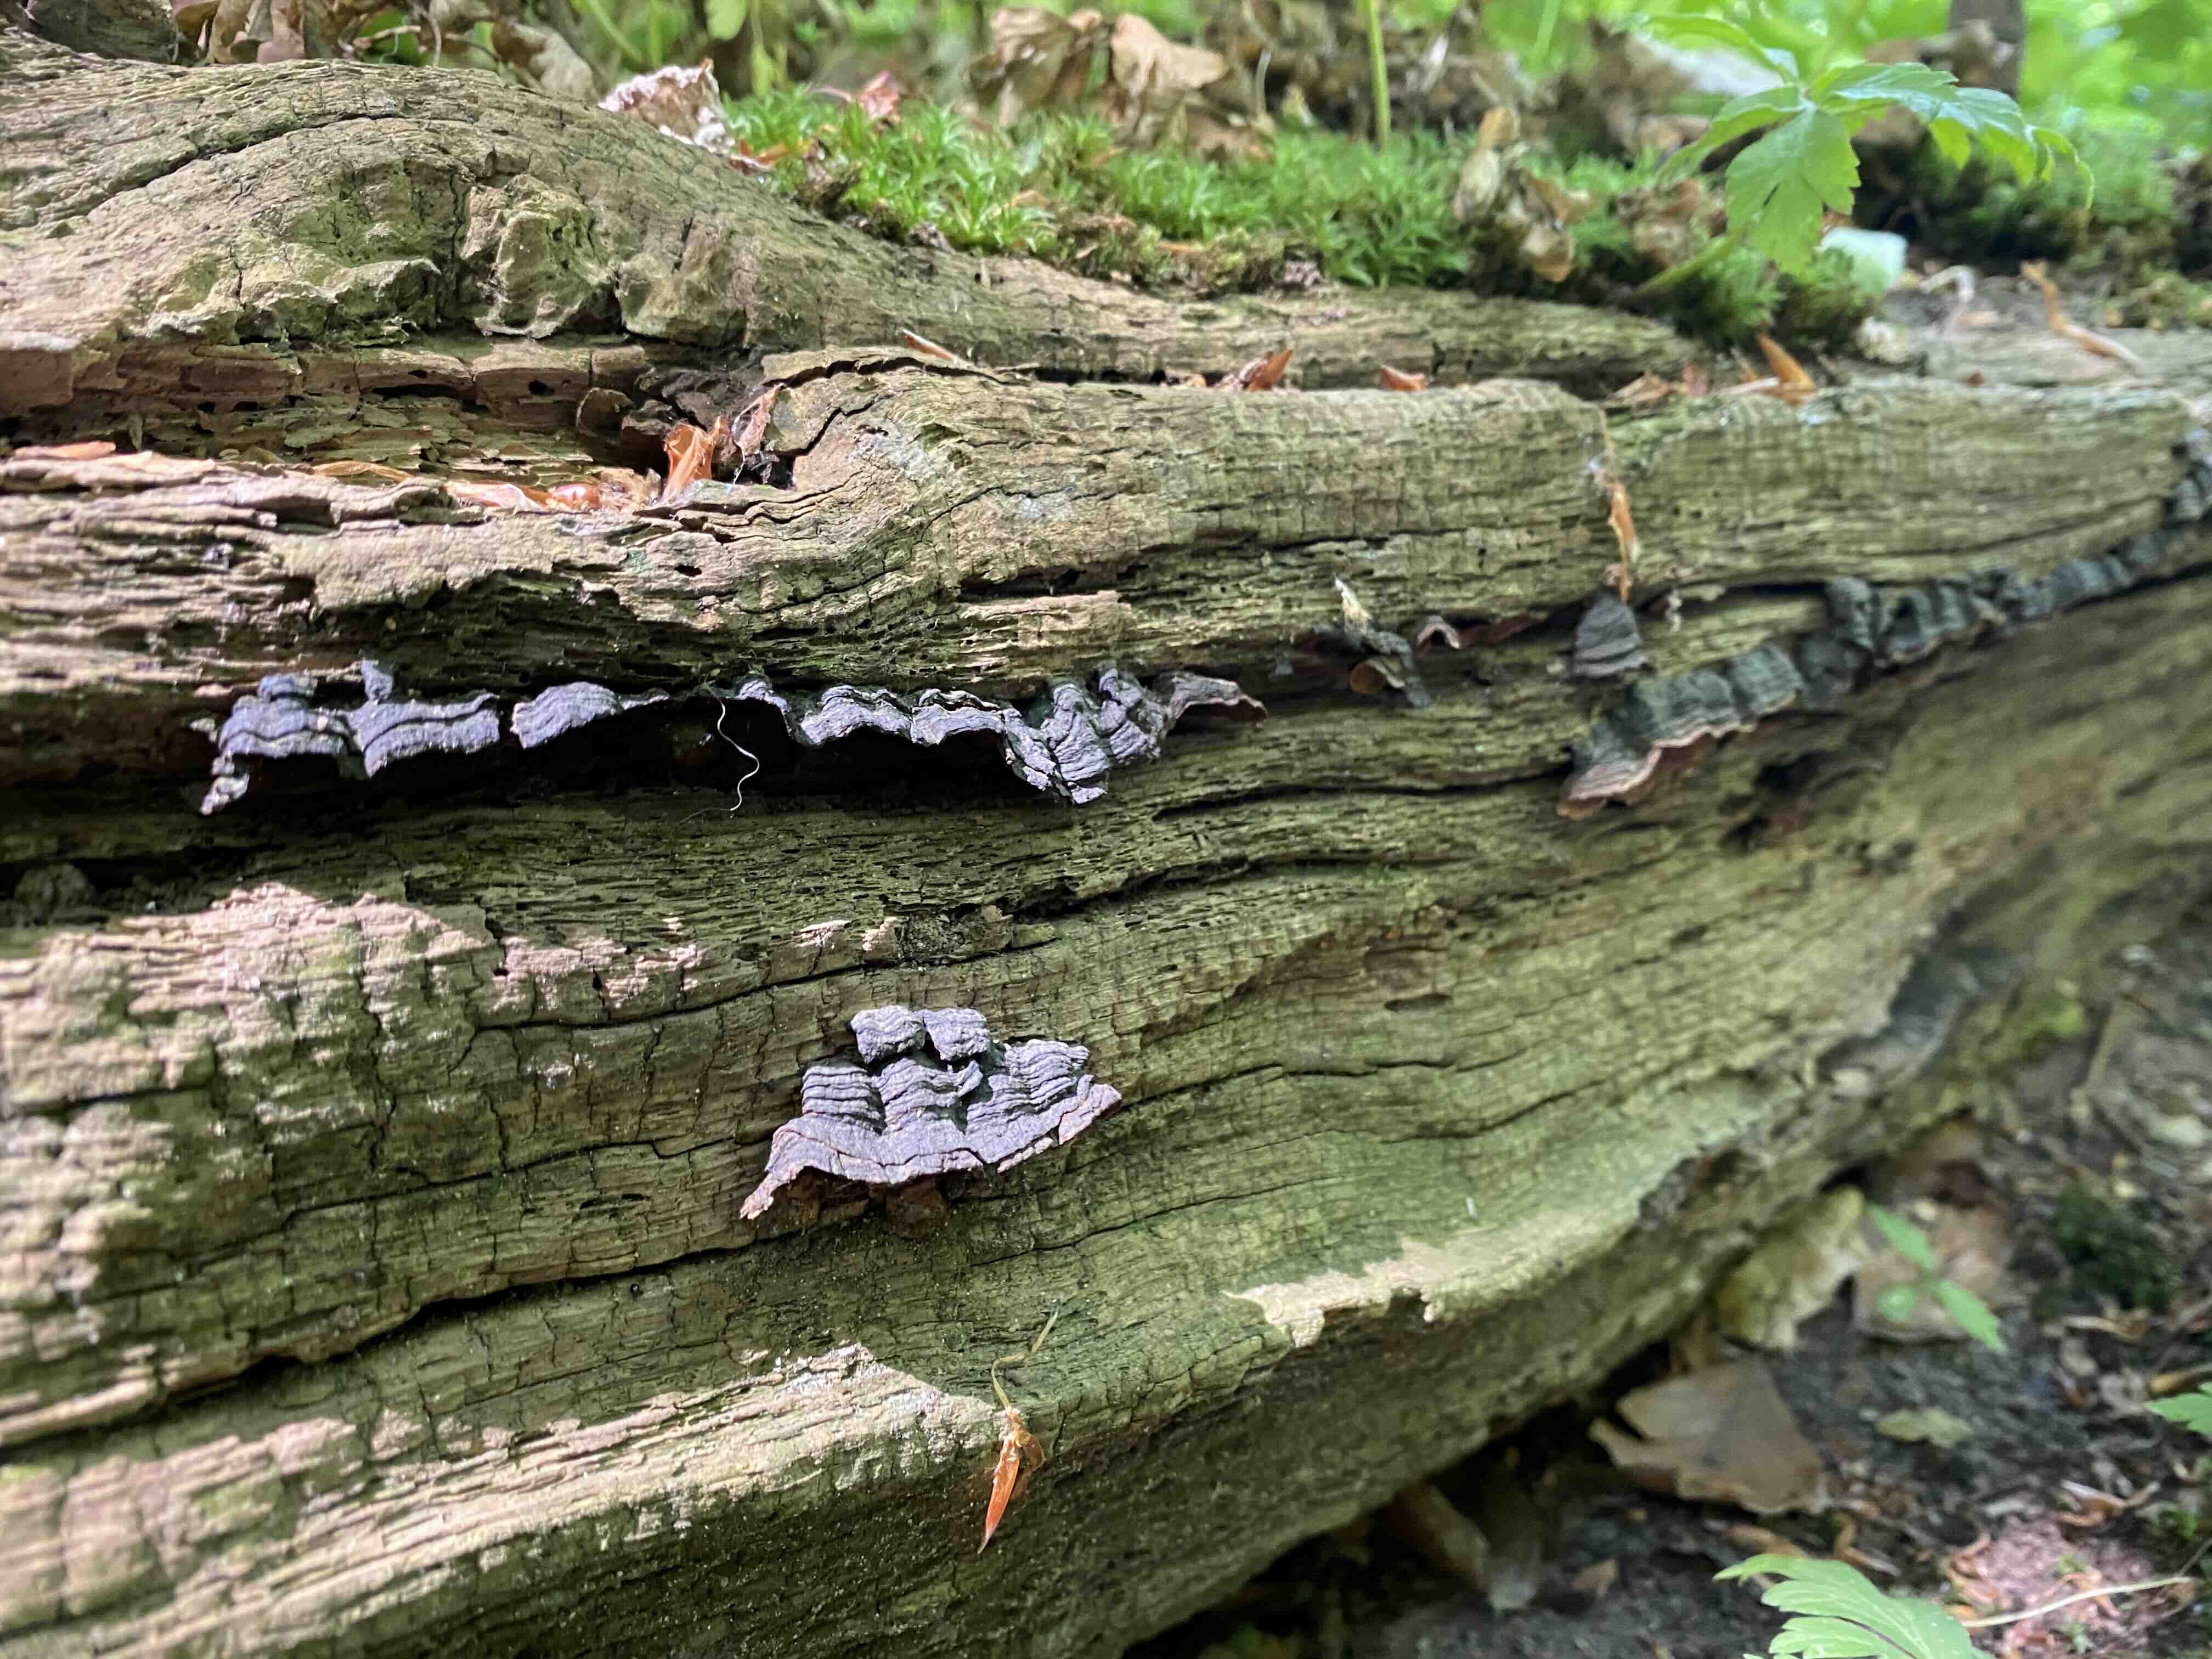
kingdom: Fungi
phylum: Basidiomycota
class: Agaricomycetes
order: Hymenochaetales
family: Hymenochaetaceae
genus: Hymenochaete
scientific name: Hymenochaete rubiginosa
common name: stiv ruslædersvamp
